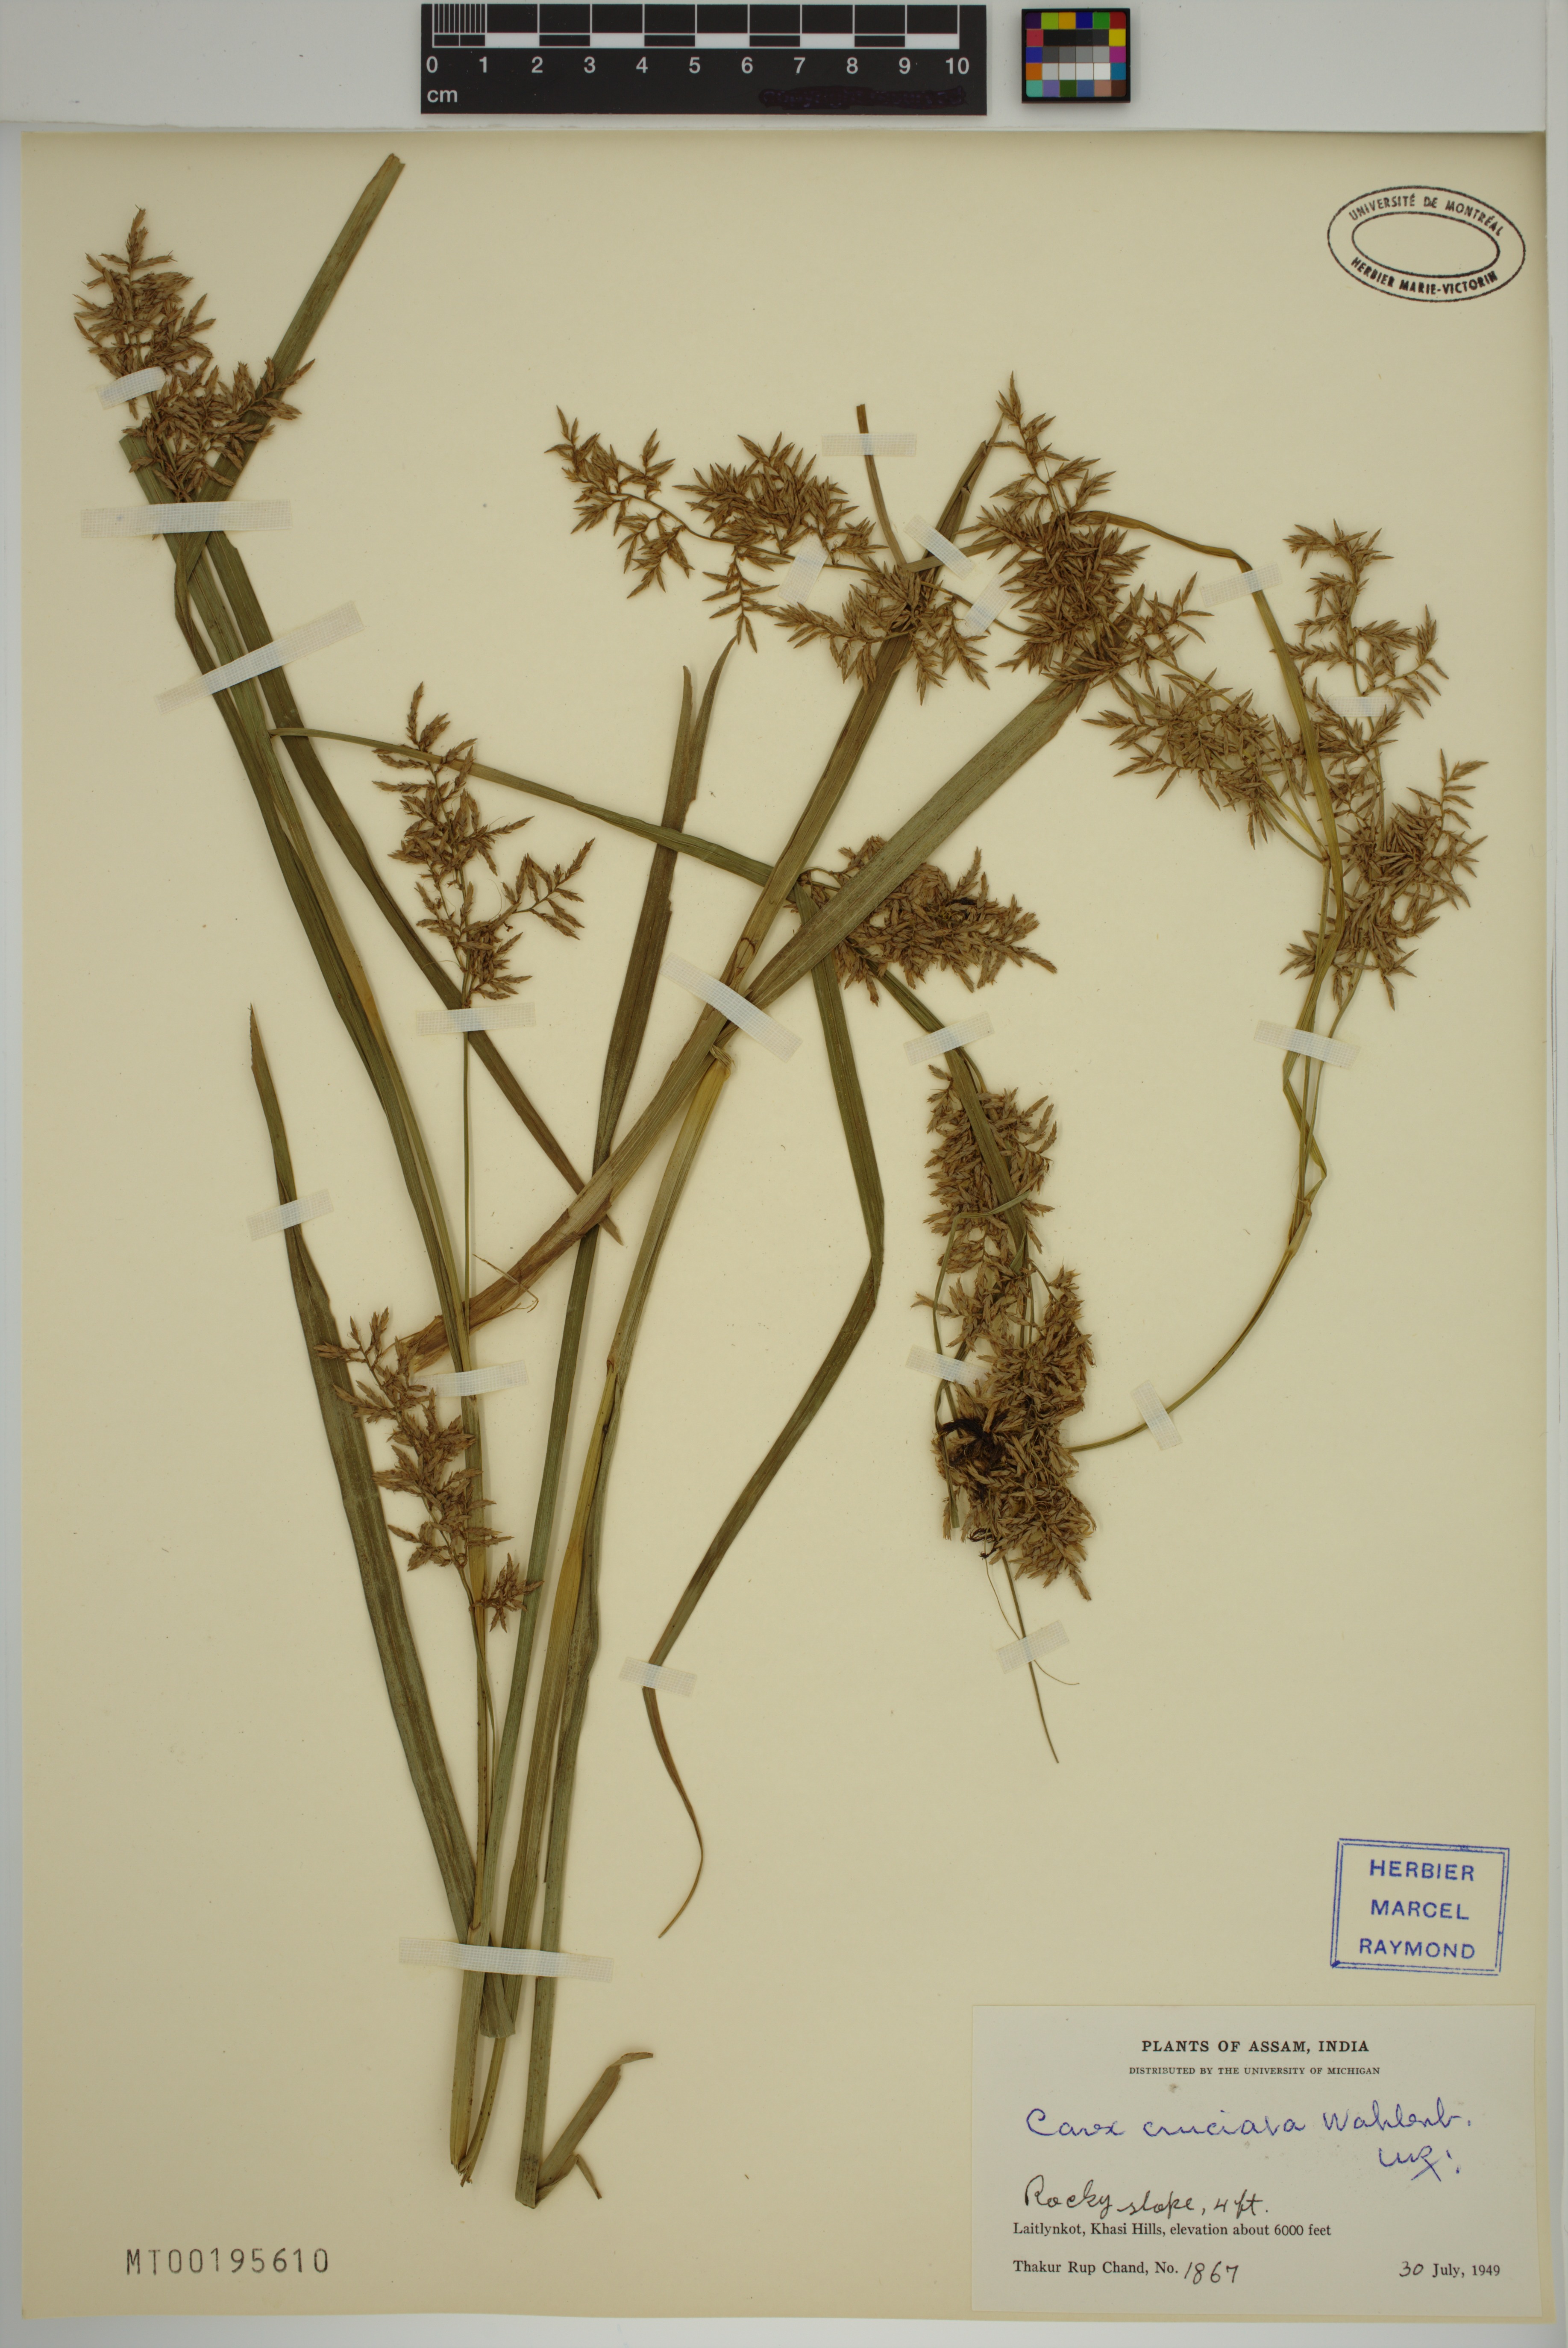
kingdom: Plantae
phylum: Tracheophyta
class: Liliopsida
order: Poales
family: Cyperaceae
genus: Carex
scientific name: Carex cruciata
